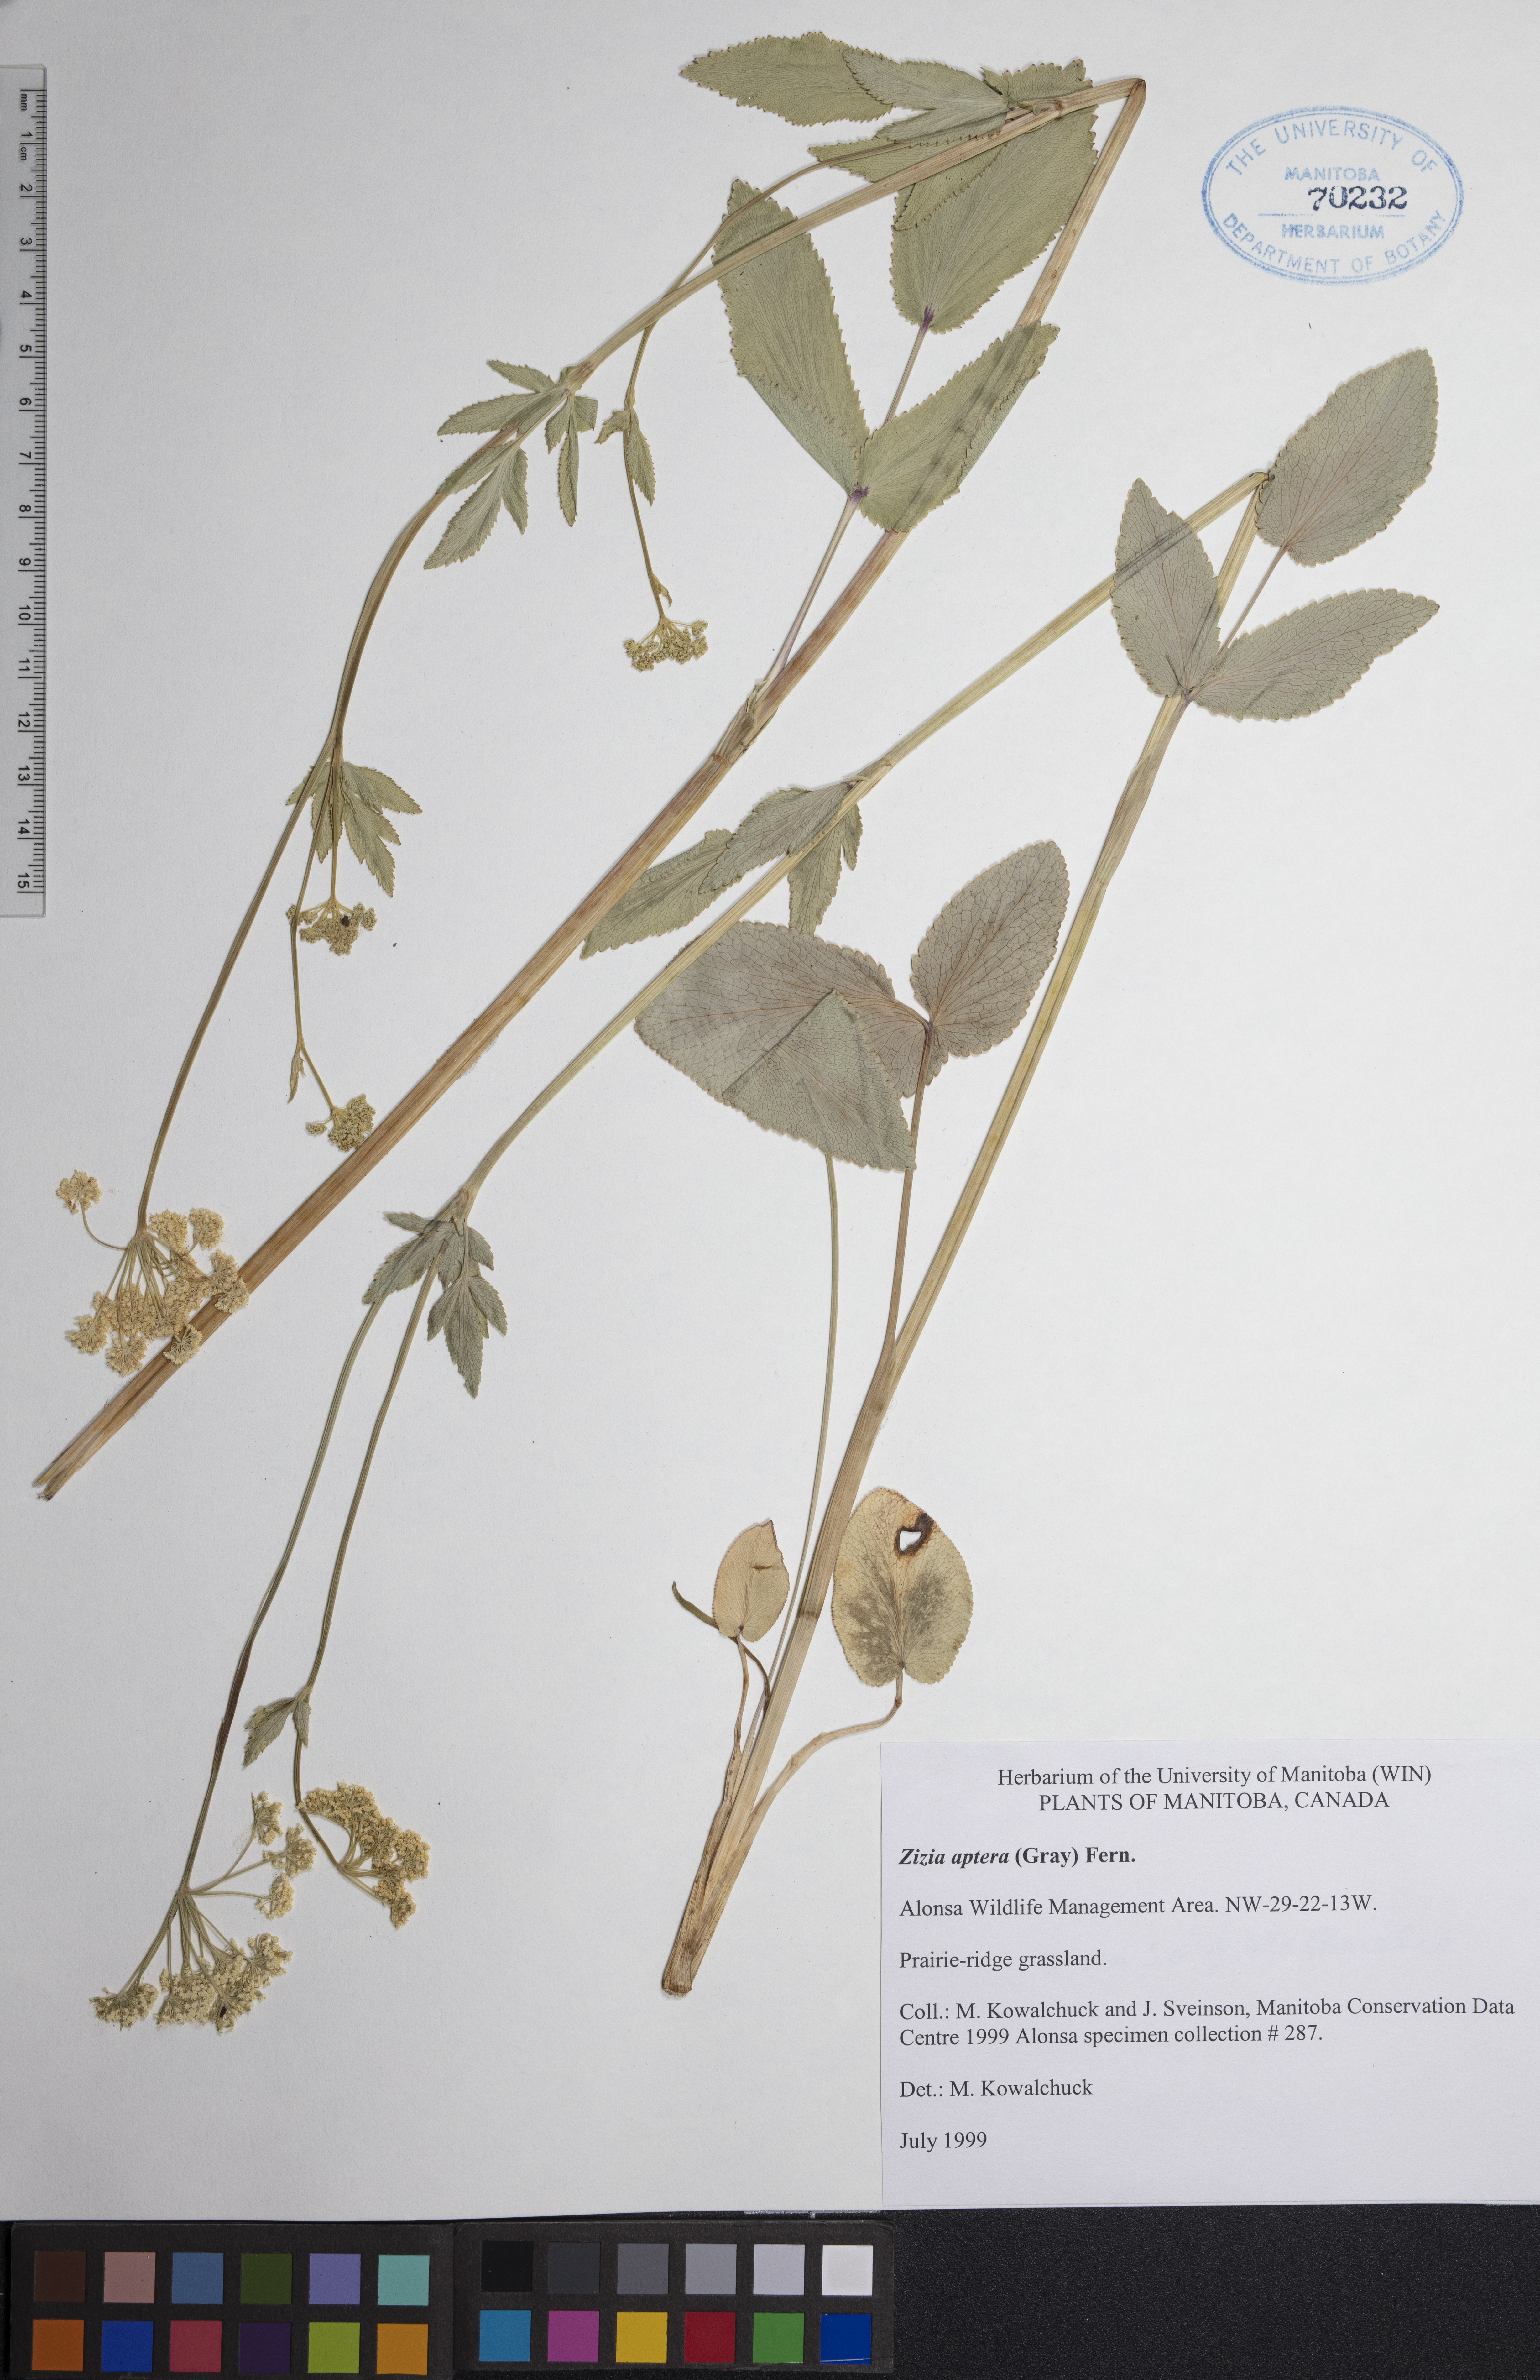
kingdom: Plantae
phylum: Tracheophyta
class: Magnoliopsida
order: Apiales
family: Apiaceae
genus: Zizia
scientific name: Zizia aptera
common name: Heart-leaved alexanders
